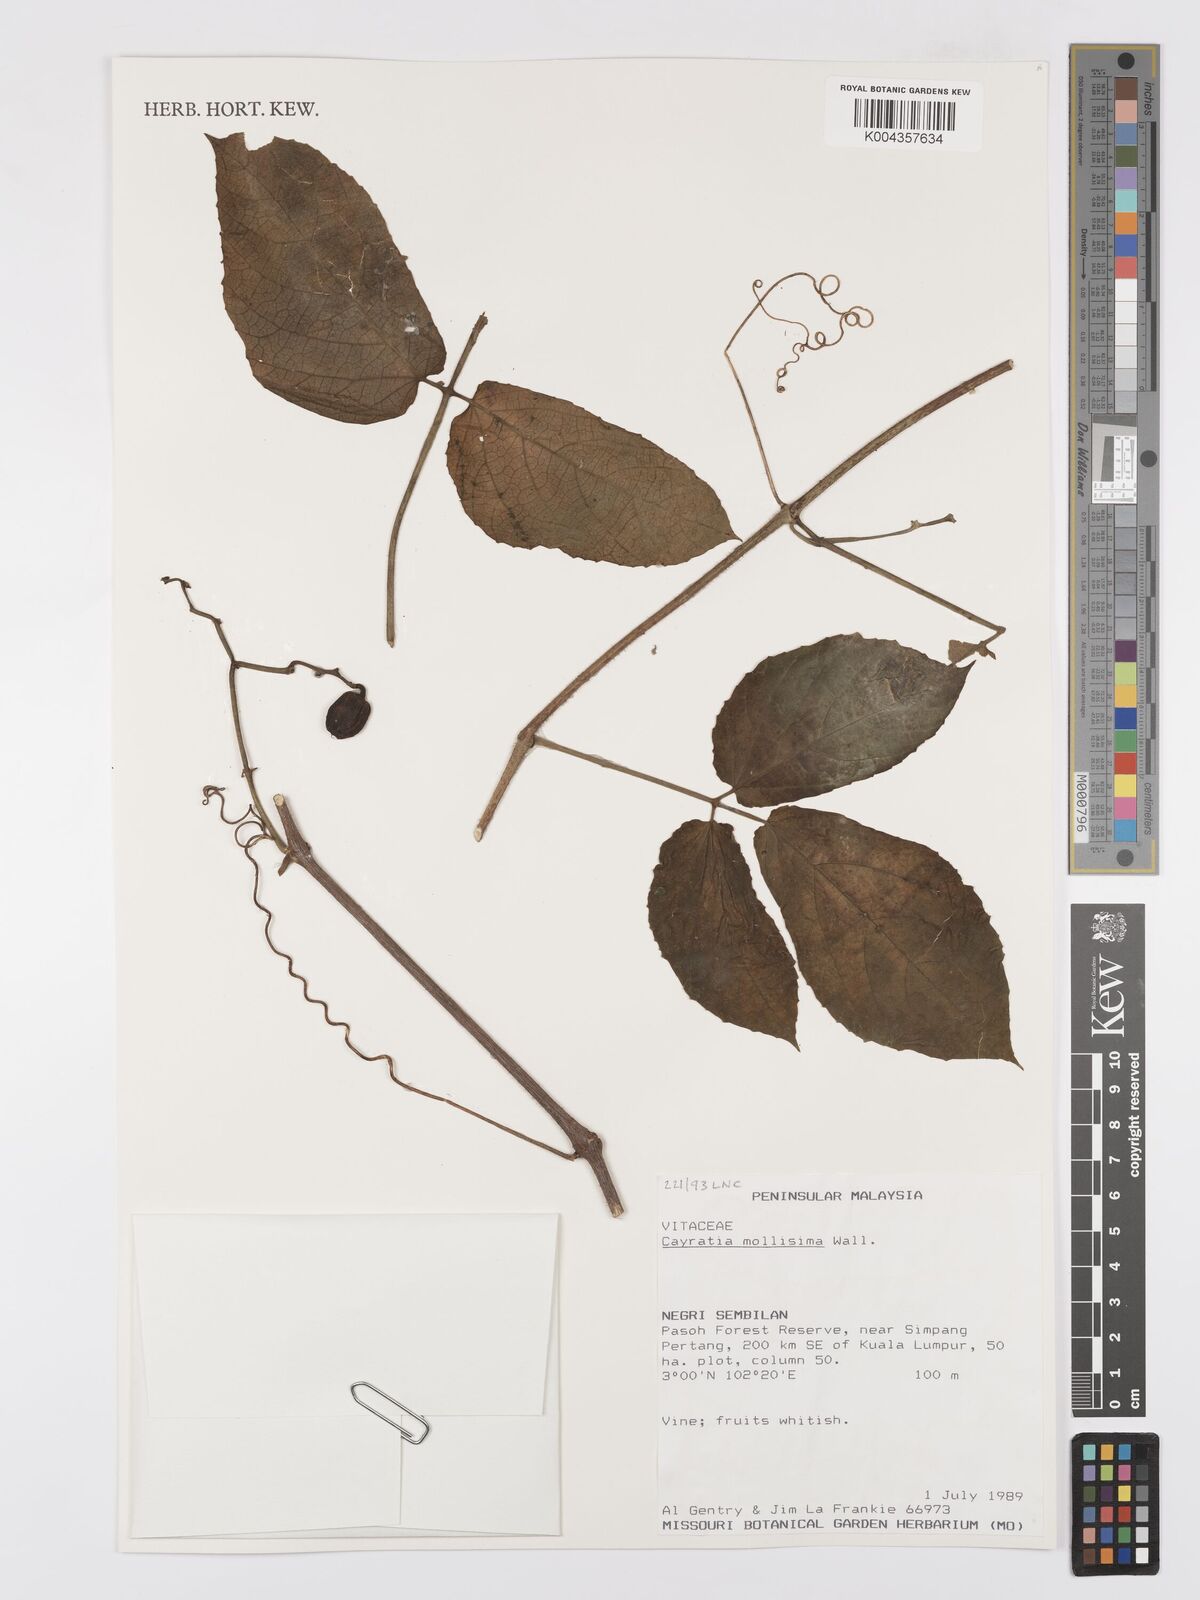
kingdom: Plantae
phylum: Tracheophyta
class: Magnoliopsida
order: Vitales
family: Vitaceae
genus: Cayratia
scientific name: Cayratia mollissima
